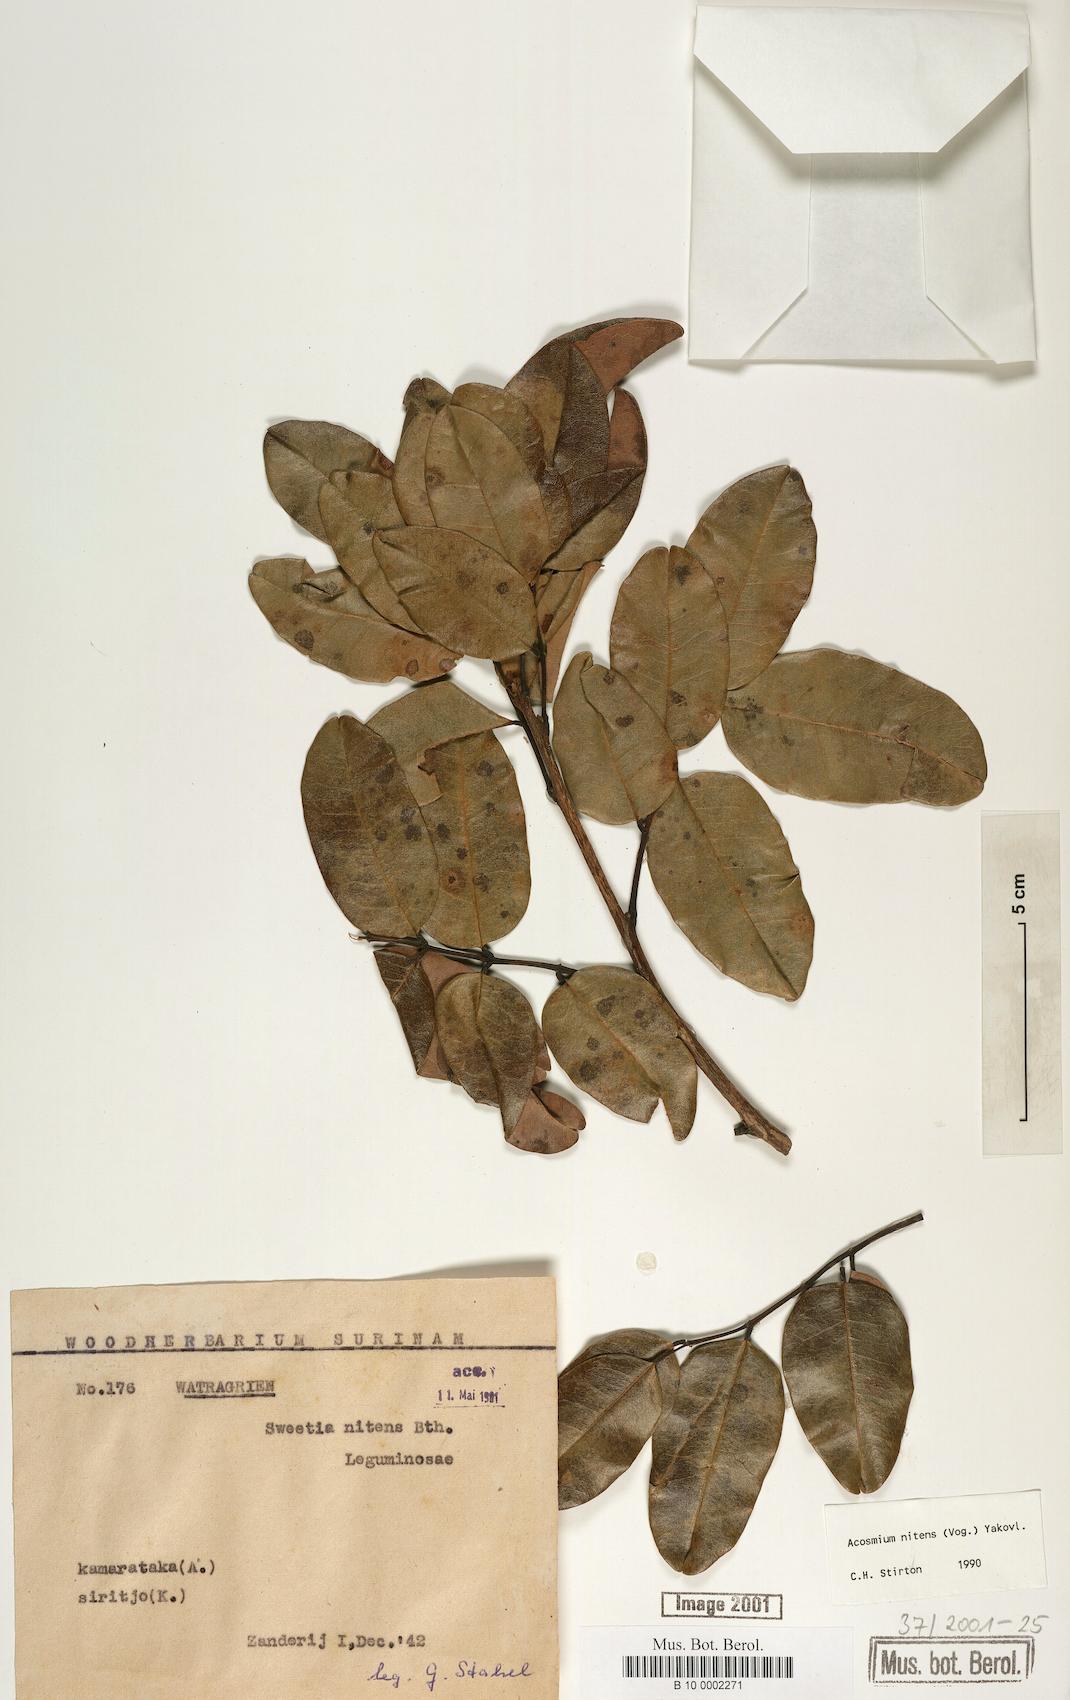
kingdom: Plantae
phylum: Tracheophyta
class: Magnoliopsida
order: Fabales
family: Fabaceae
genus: Leptolobium
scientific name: Leptolobium nitens
